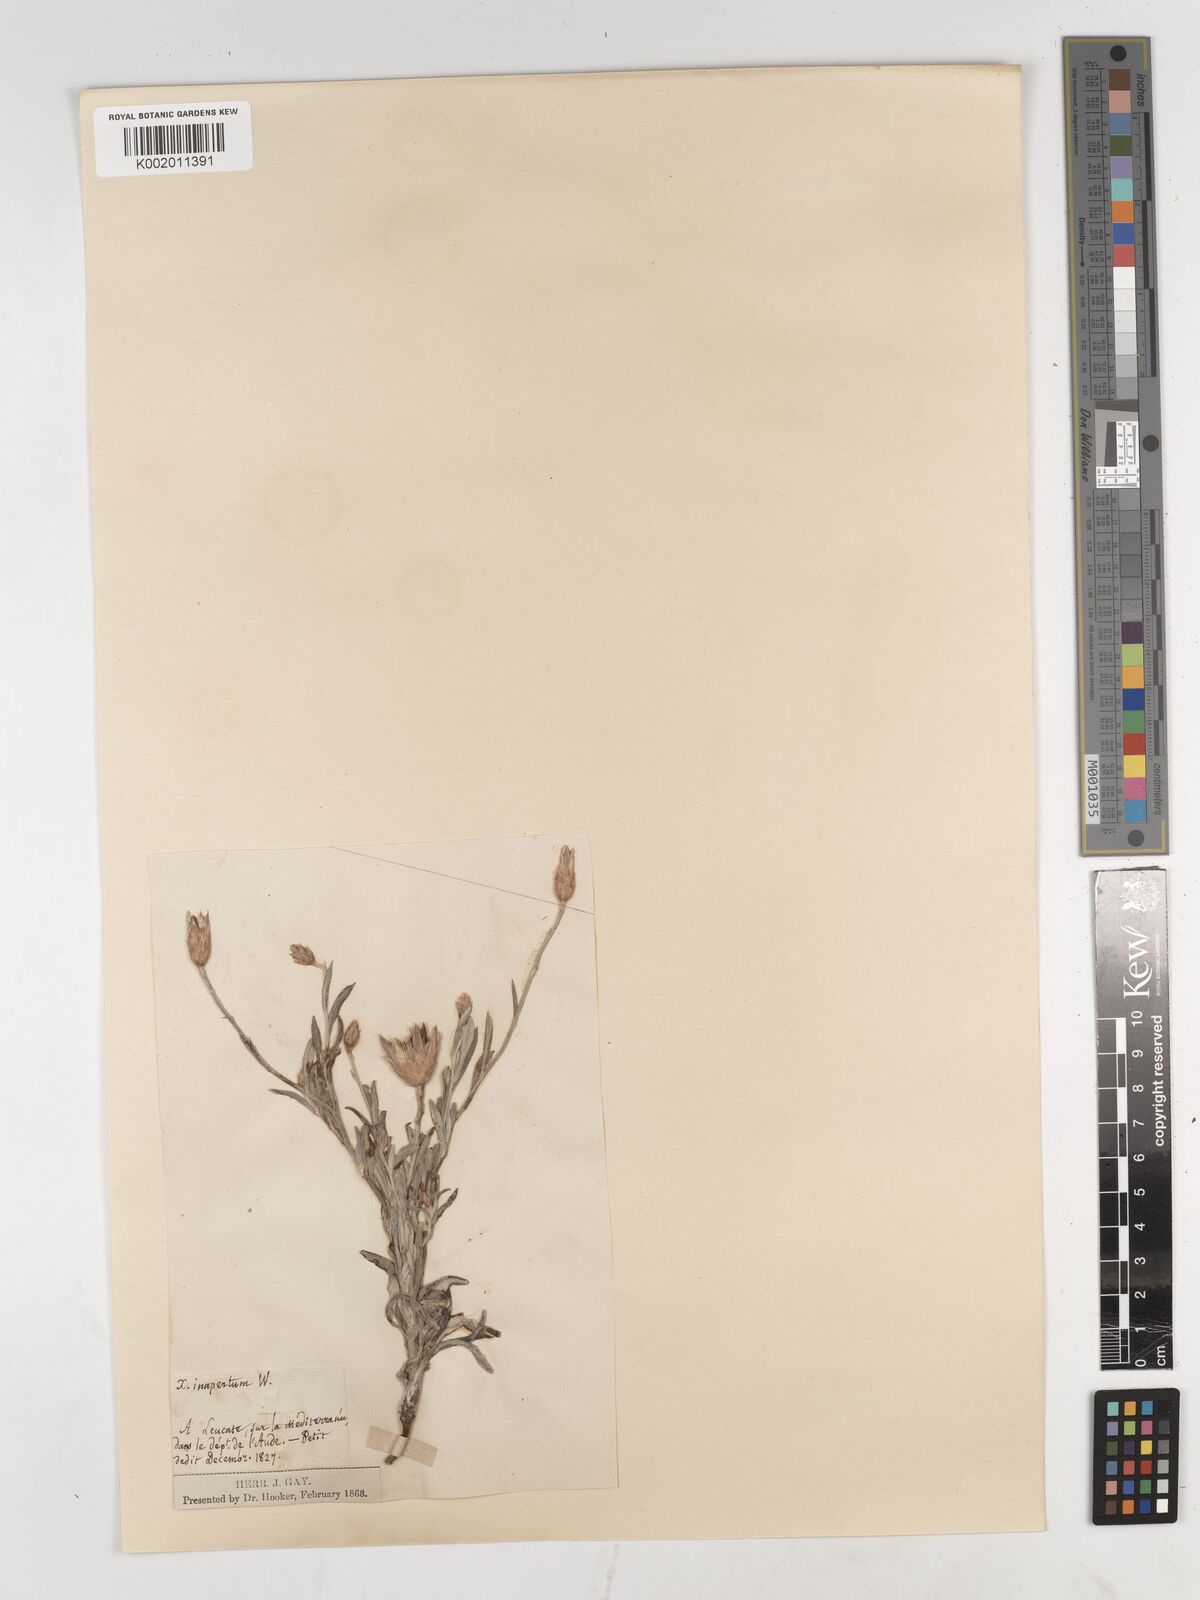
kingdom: Plantae
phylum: Tracheophyta
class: Magnoliopsida
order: Asterales
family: Asteraceae
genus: Xeranthemum
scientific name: Xeranthemum inapertum
